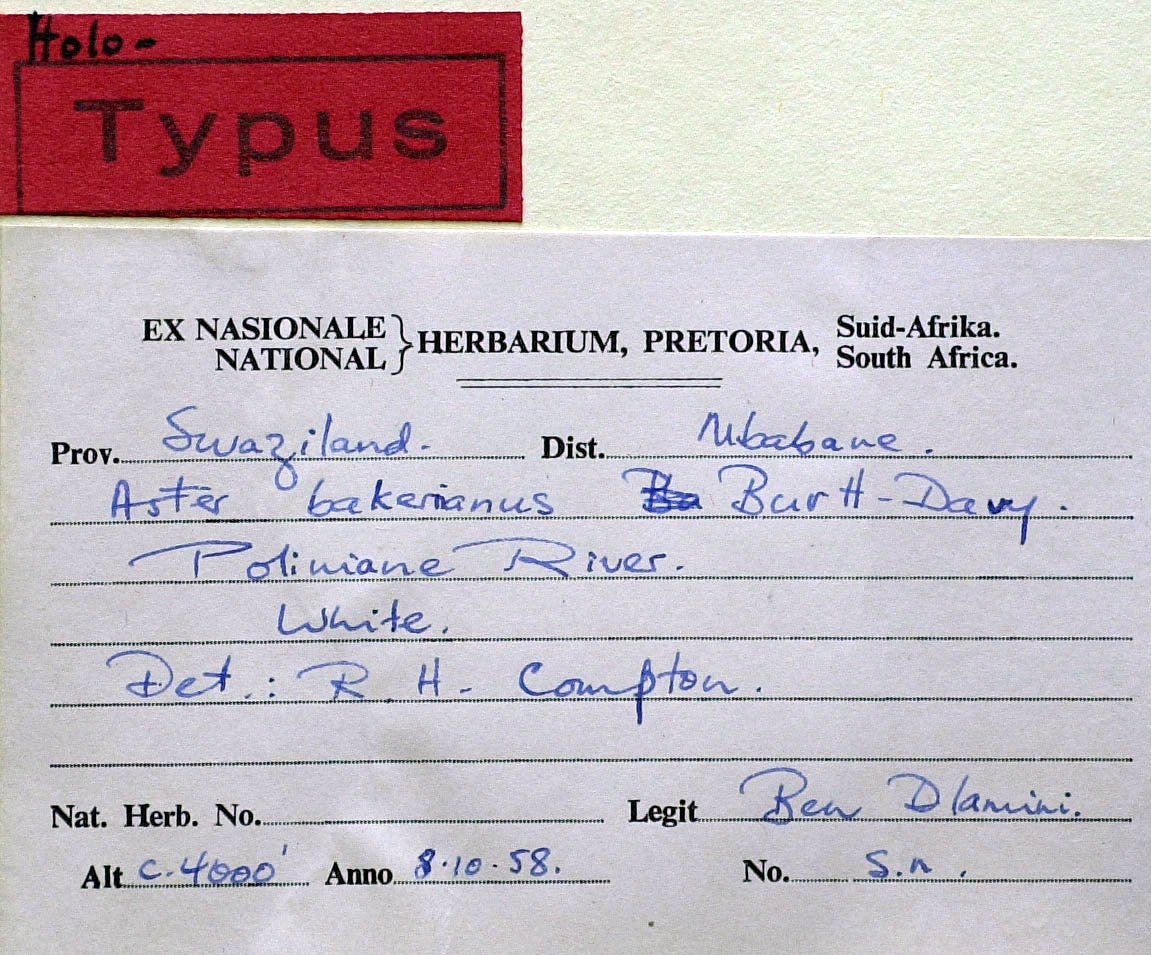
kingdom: Plantae
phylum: Tracheophyta
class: Magnoliopsida
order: Asterales
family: Asteraceae
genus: Aster
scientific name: Aster pseudobakeranus
